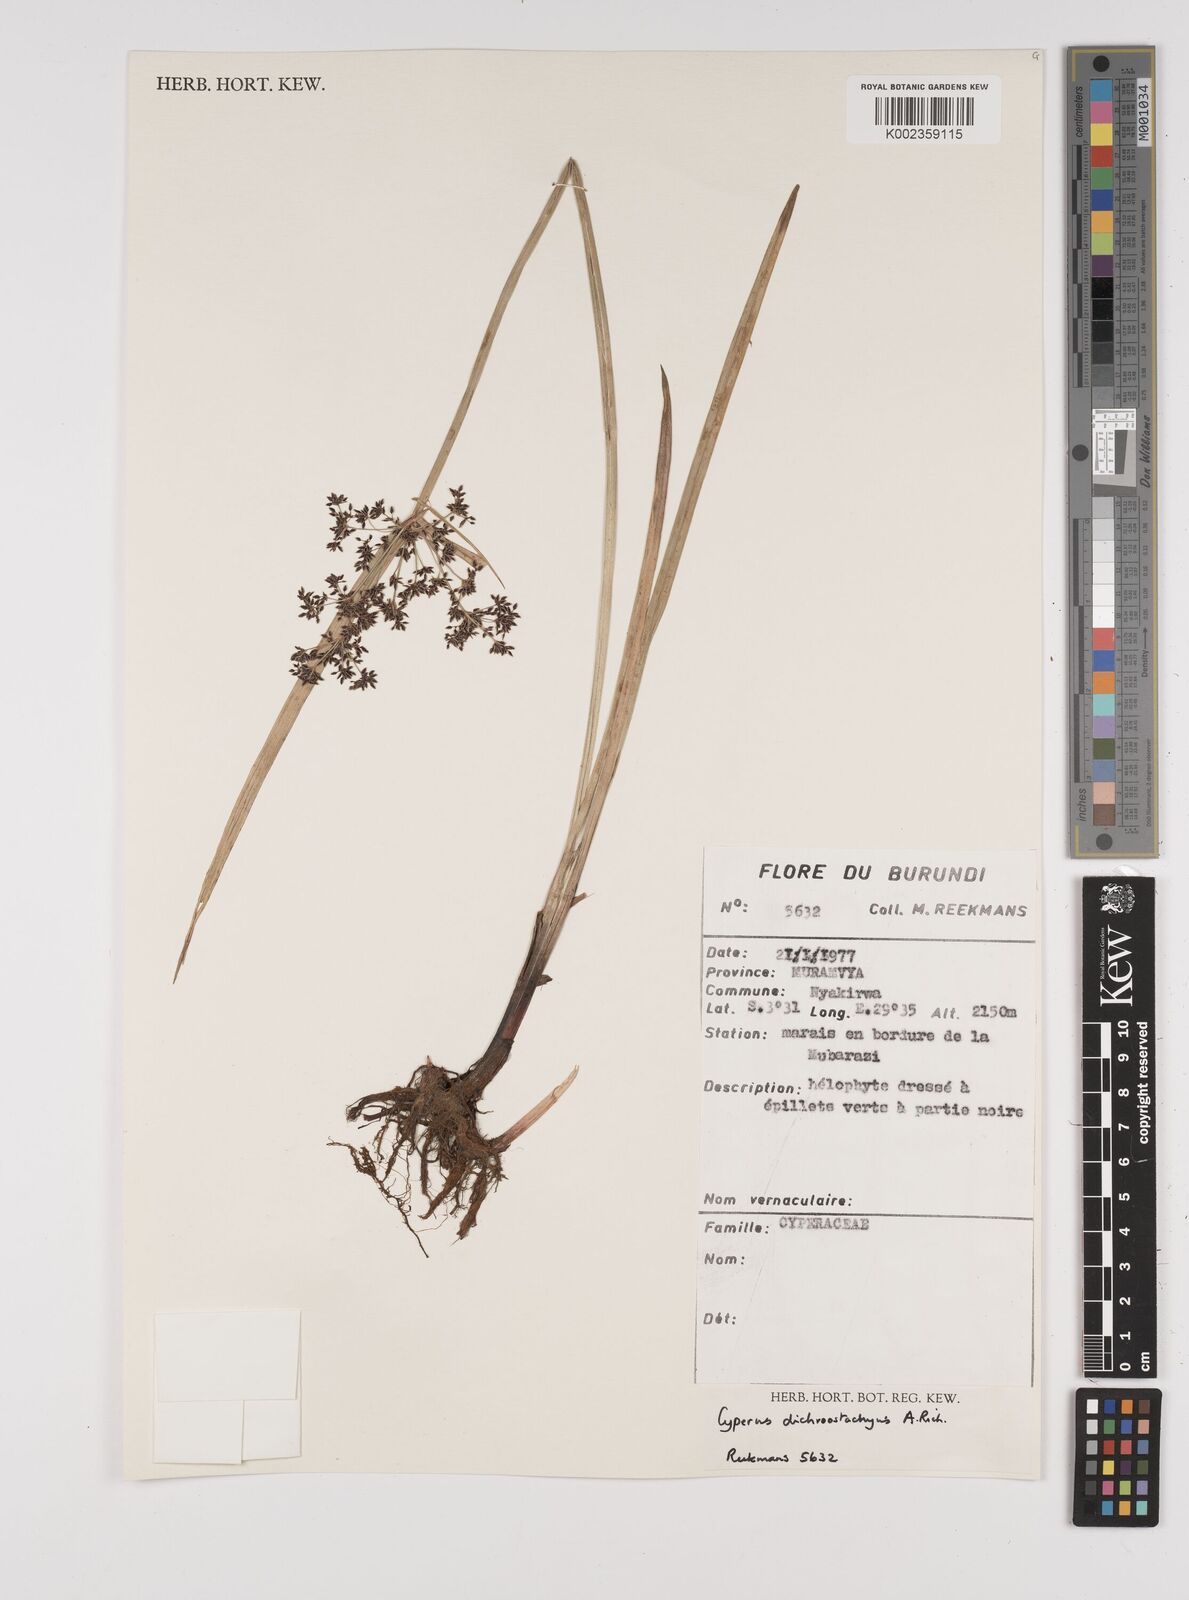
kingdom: Plantae
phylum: Tracheophyta
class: Liliopsida
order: Poales
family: Cyperaceae
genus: Cyperus
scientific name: Cyperus dichrostachyus
